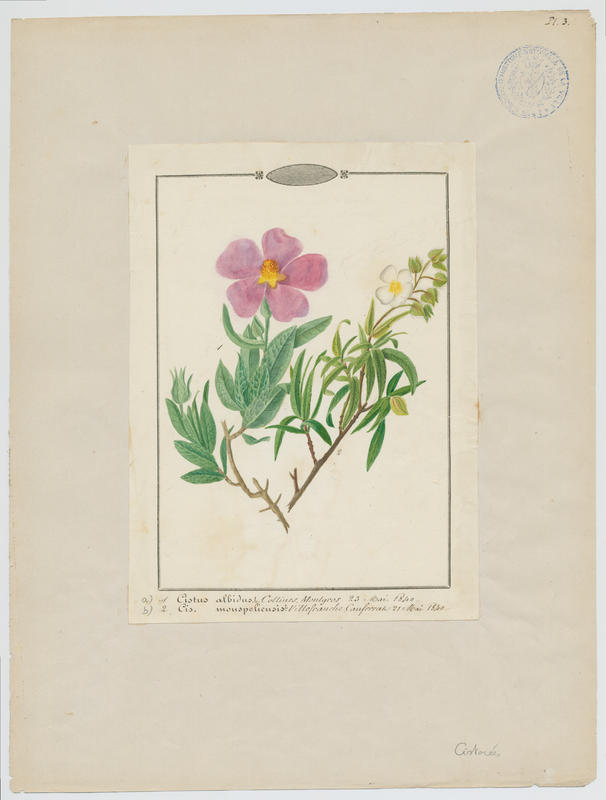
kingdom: Plantae
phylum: Tracheophyta
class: Magnoliopsida
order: Malvales
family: Cistaceae
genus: Cistus
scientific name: Cistus monspeliensis
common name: Montpelier cistus
